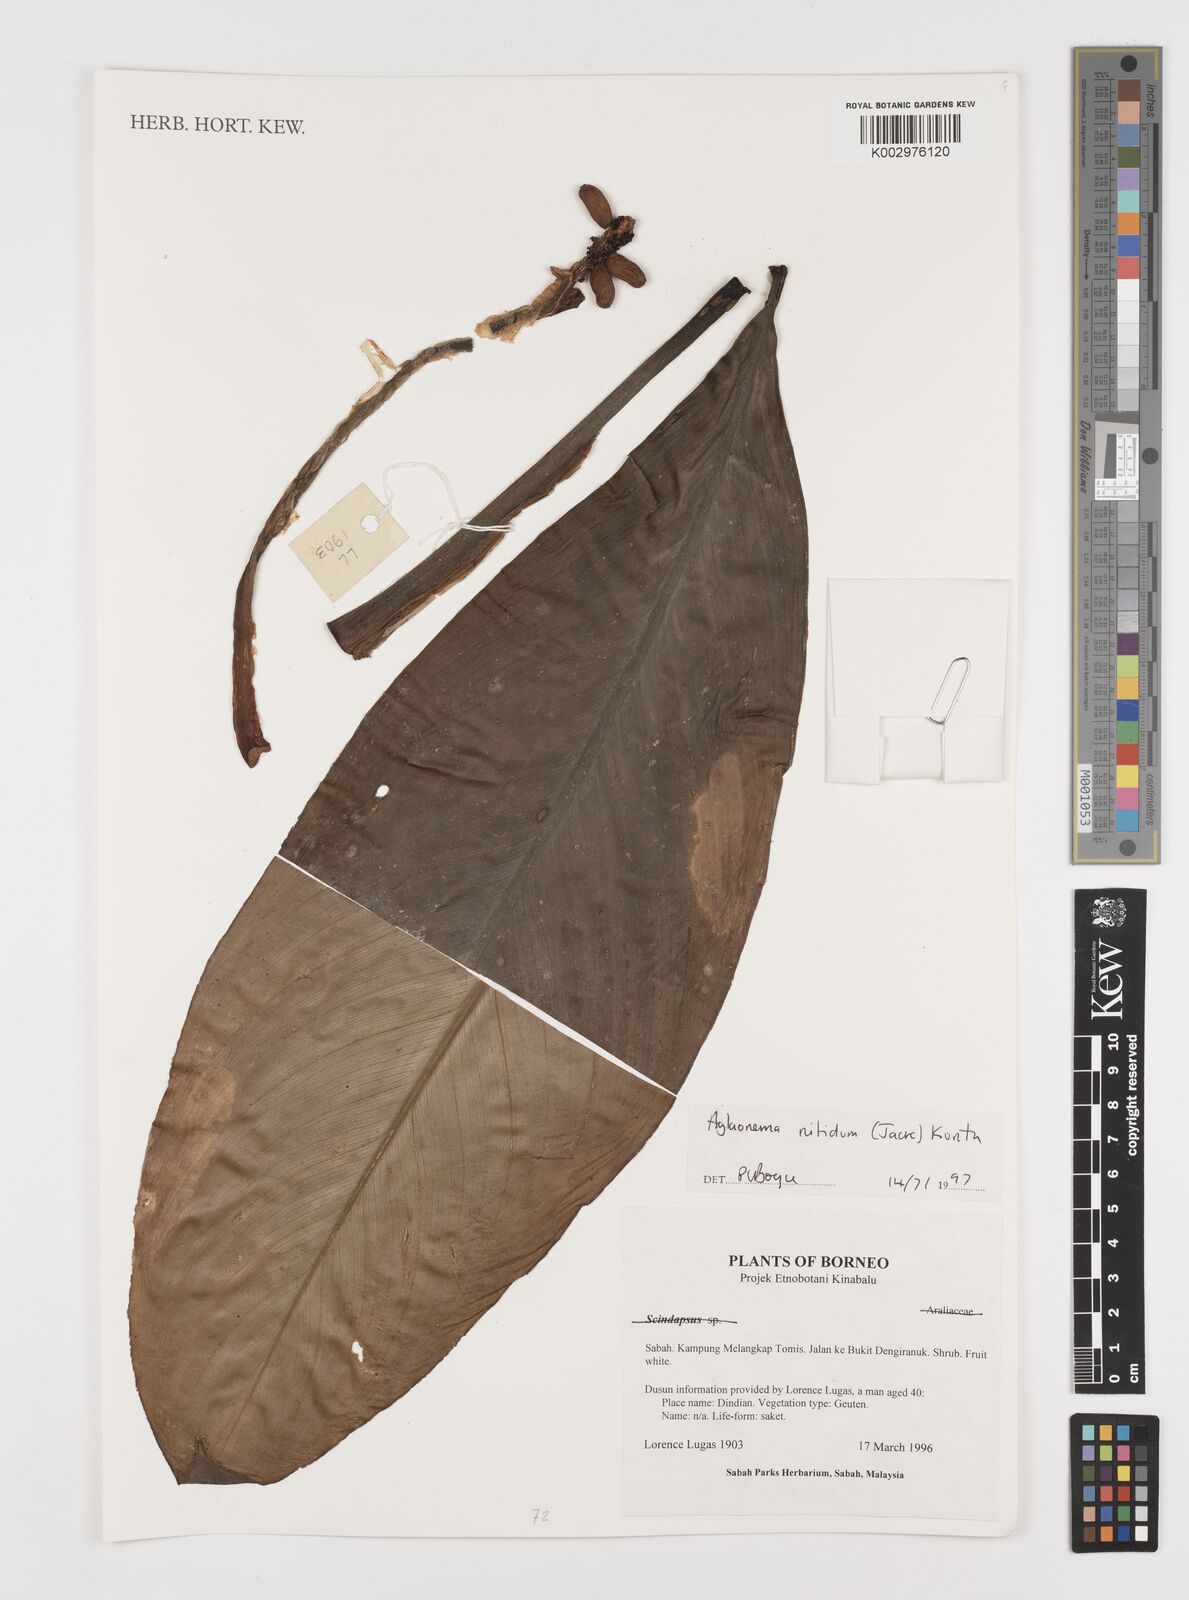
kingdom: Plantae
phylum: Tracheophyta
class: Liliopsida
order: Alismatales
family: Araceae
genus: Aglaonema
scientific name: Aglaonema nitidum
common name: Aglaonema aroid
